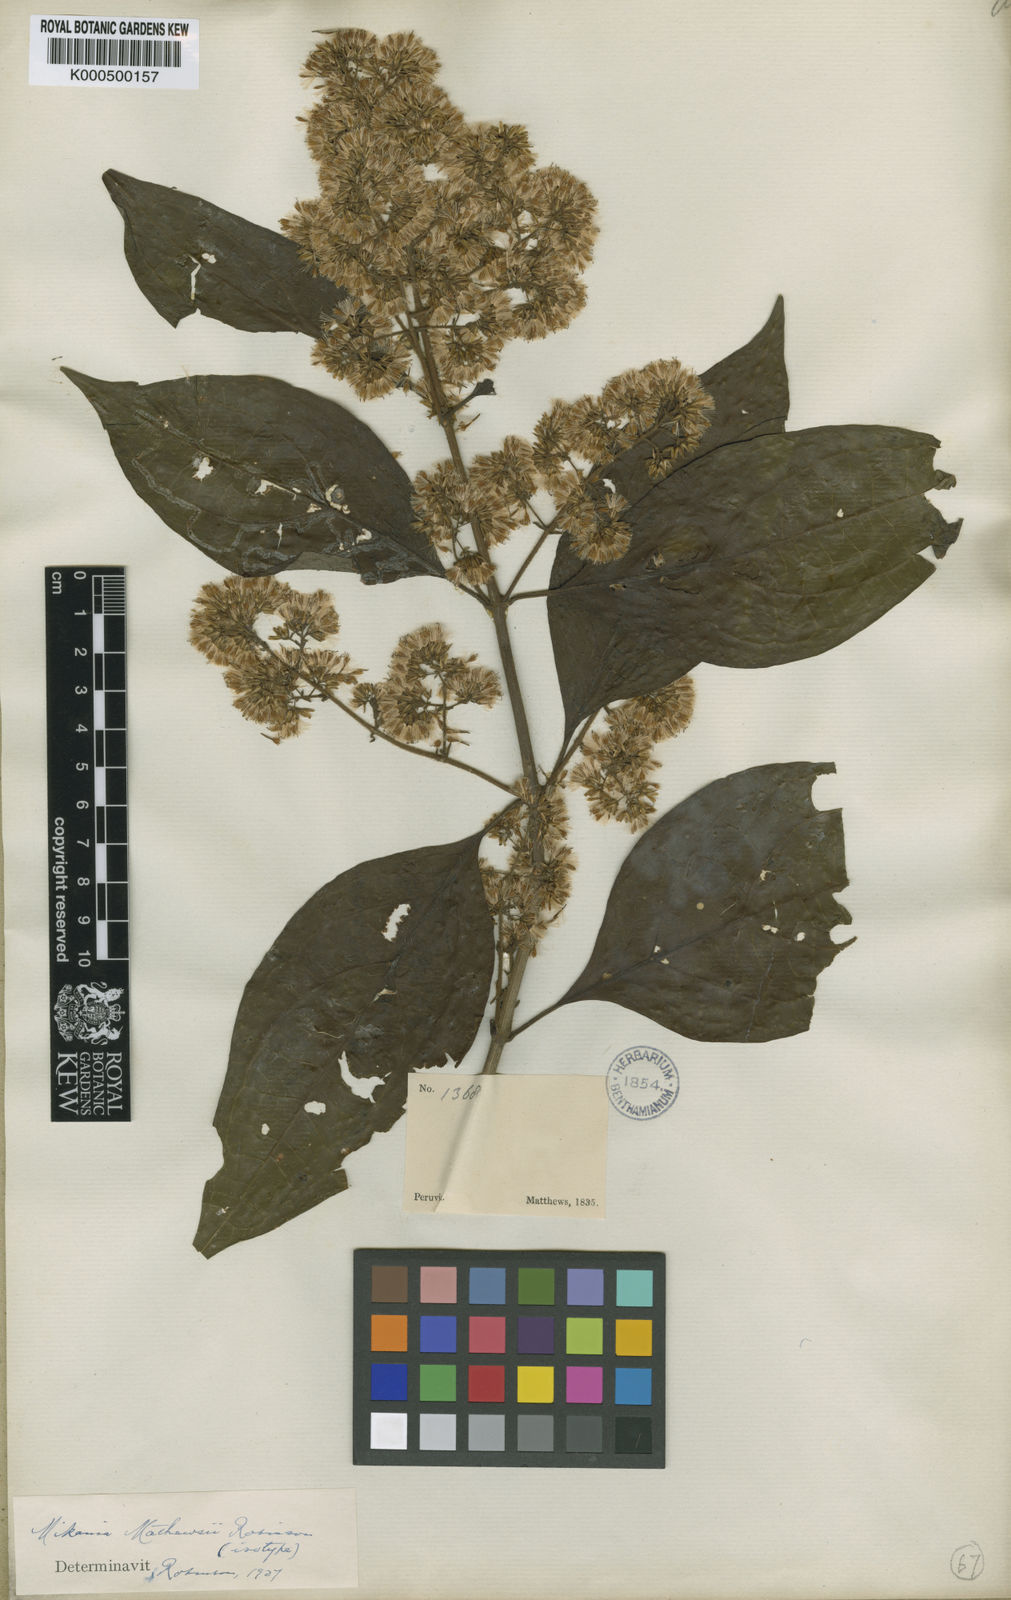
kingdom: Plantae
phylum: Tracheophyta
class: Magnoliopsida
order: Asterales
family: Asteraceae
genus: Mikania
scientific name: Mikania mathewsii
